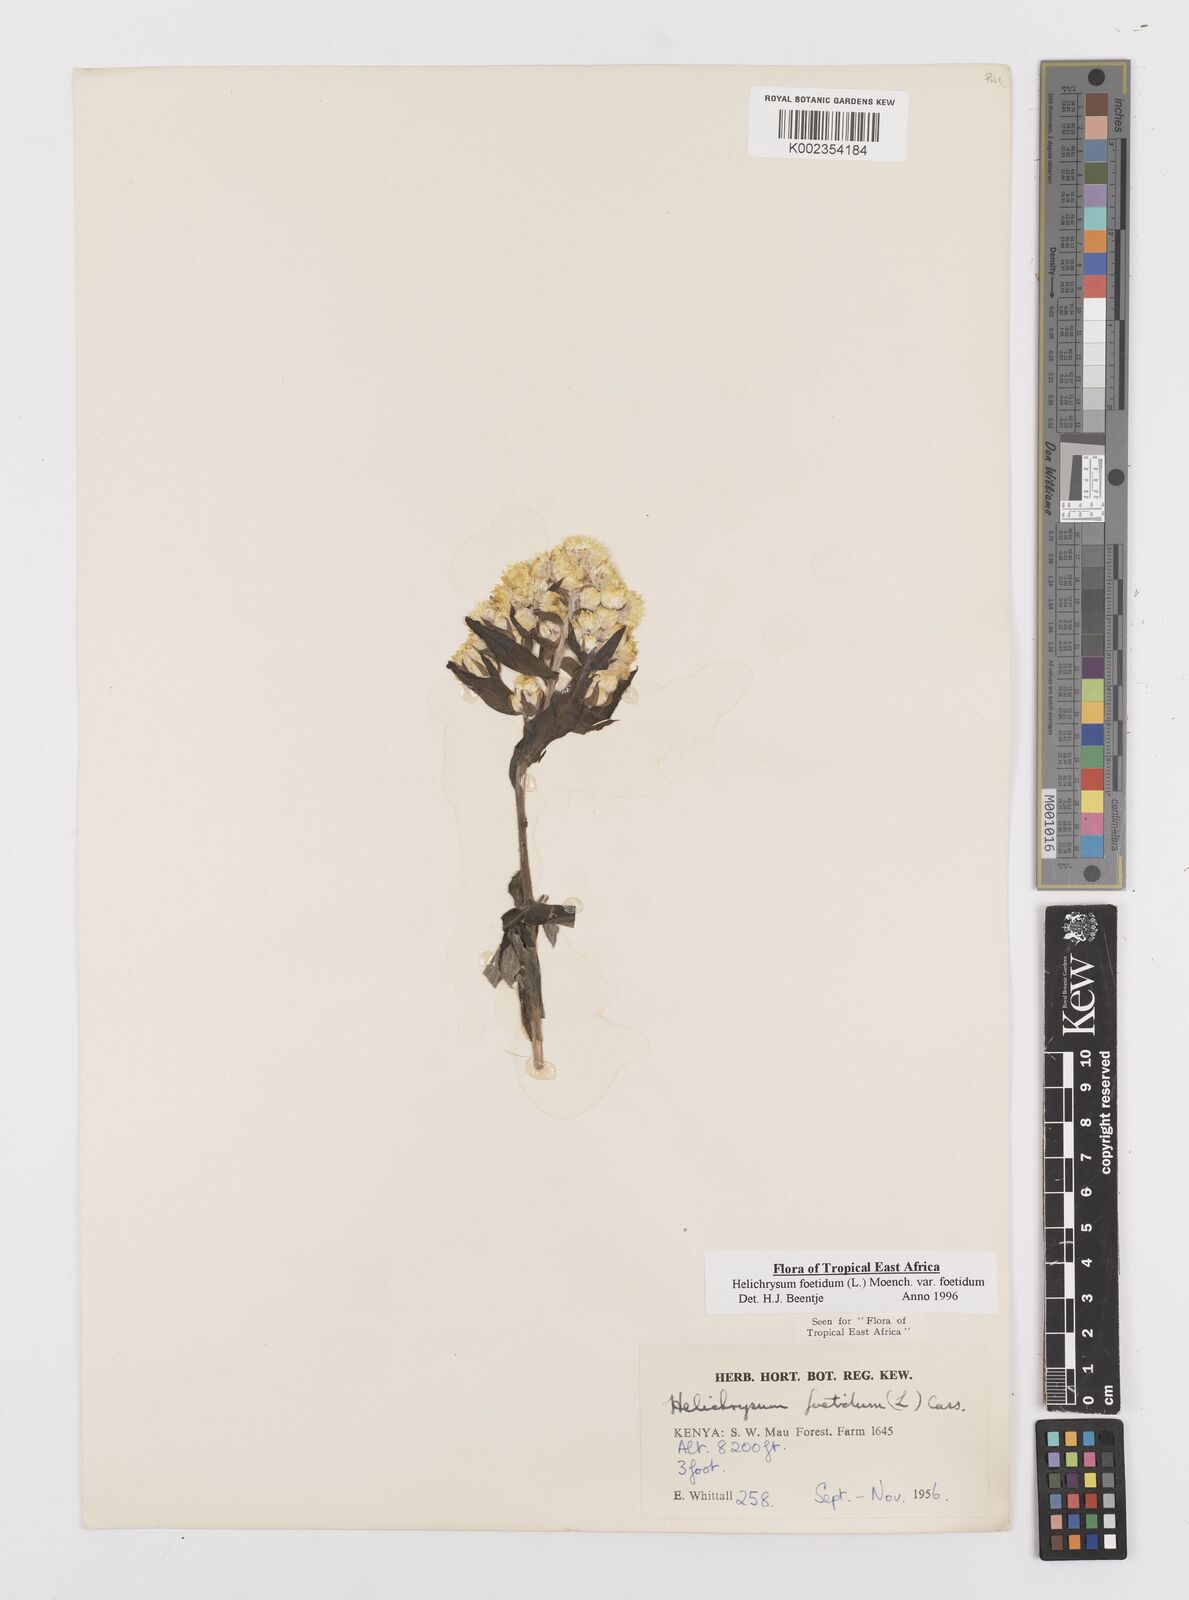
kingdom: Plantae
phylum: Tracheophyta
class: Magnoliopsida
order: Asterales
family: Asteraceae
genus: Helichrysum
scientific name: Helichrysum foetidum
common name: Stinking everlasting
